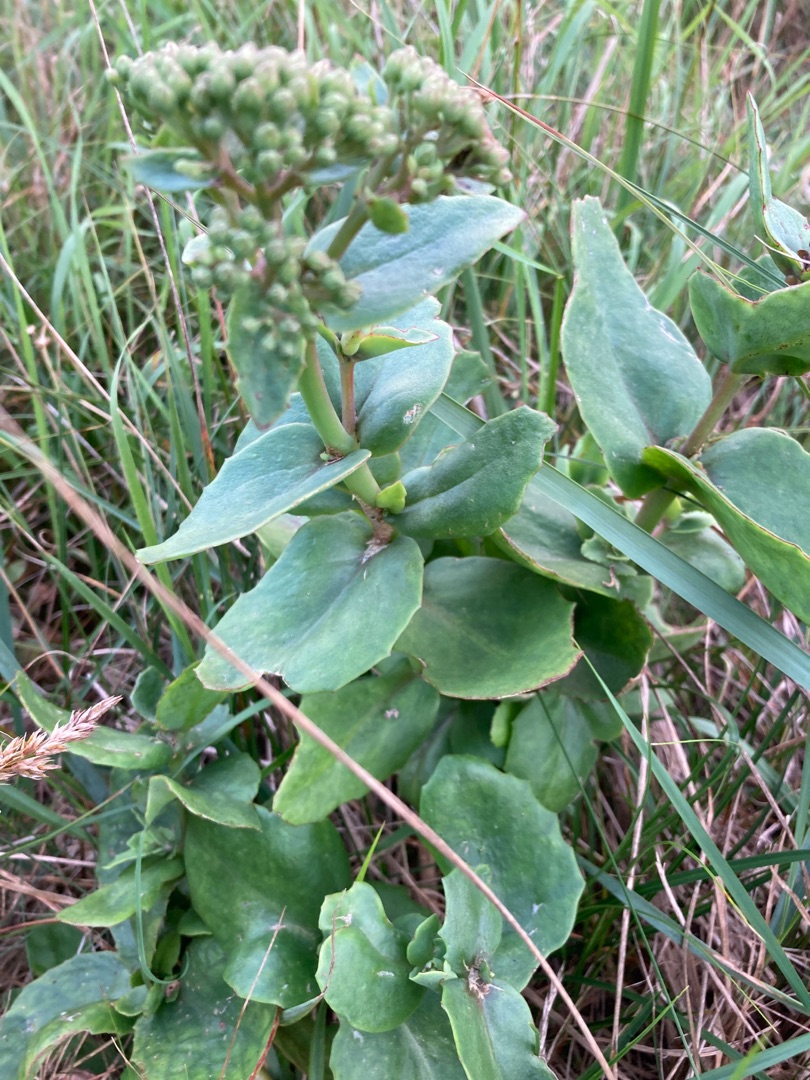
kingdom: Plantae
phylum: Tracheophyta
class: Magnoliopsida
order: Saxifragales
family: Crassulaceae
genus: Hylotelephium
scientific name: Hylotelephium maximum
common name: Almindelig sankthansurt
